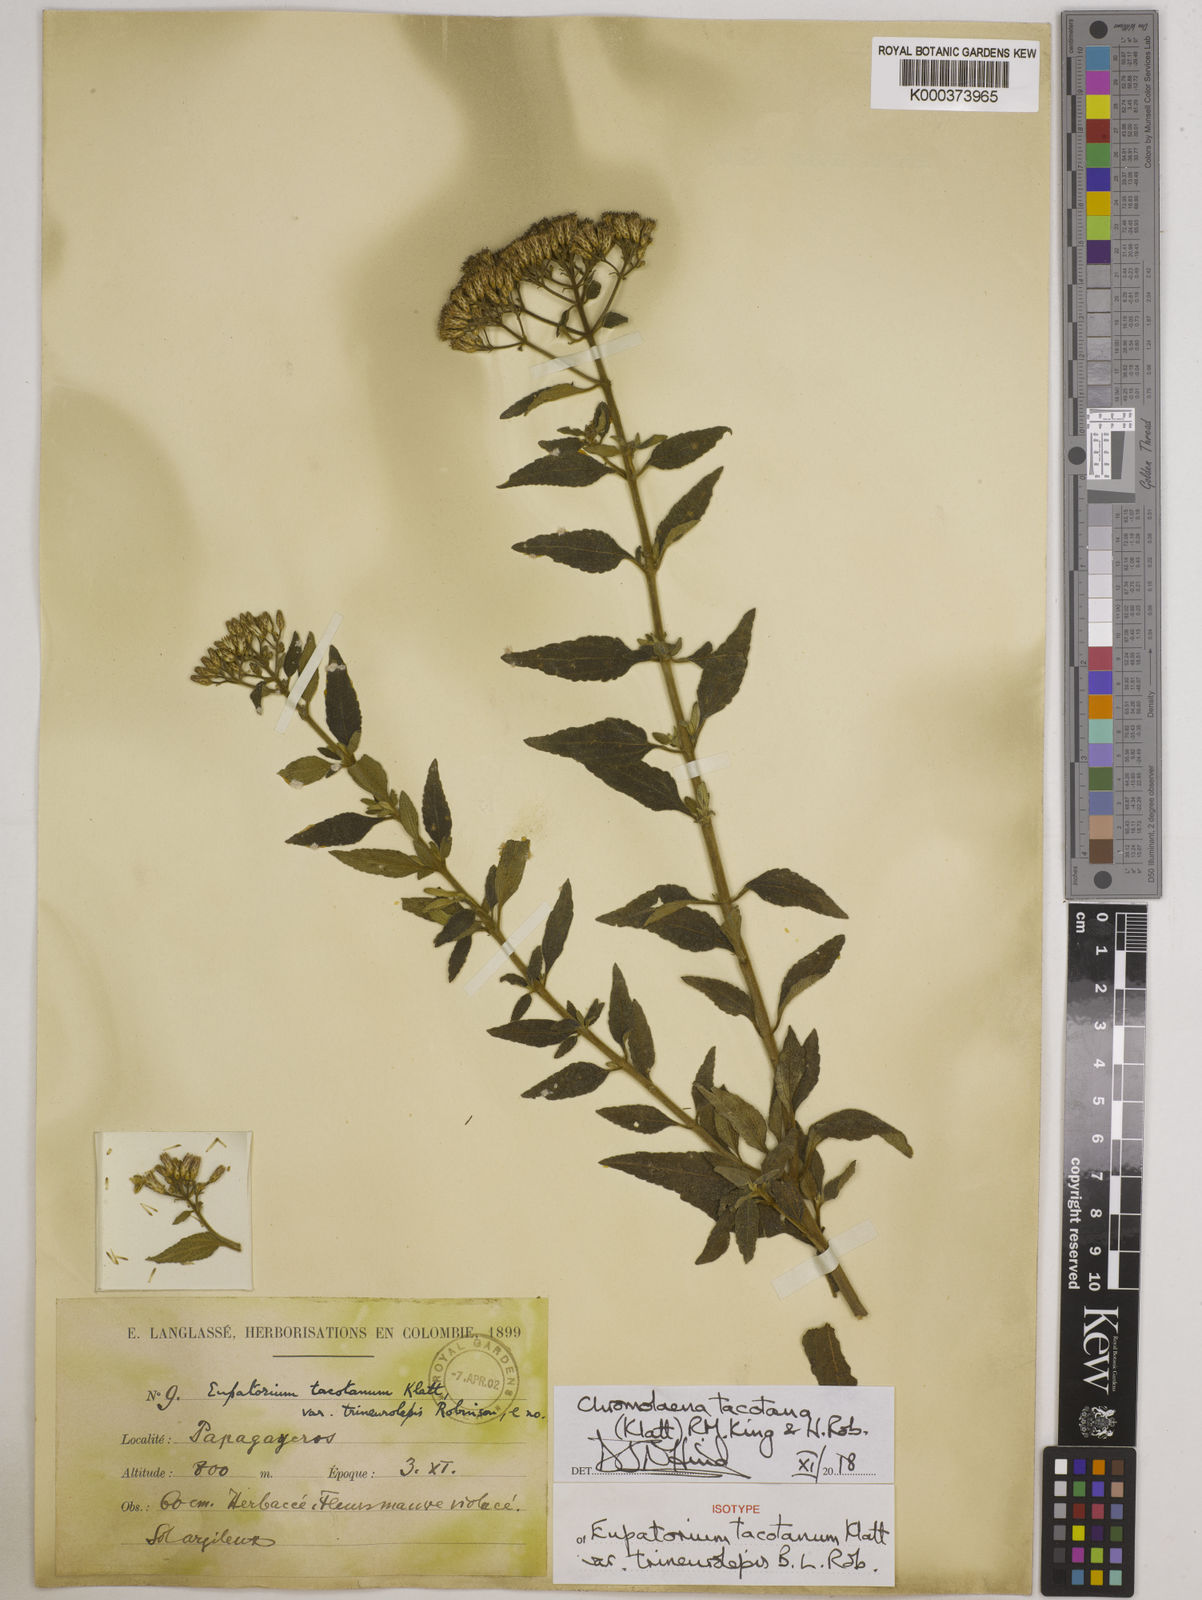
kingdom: Plantae
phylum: Tracheophyta
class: Magnoliopsida
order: Asterales
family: Asteraceae
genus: Chromolaena
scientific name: Chromolaena tacotana
